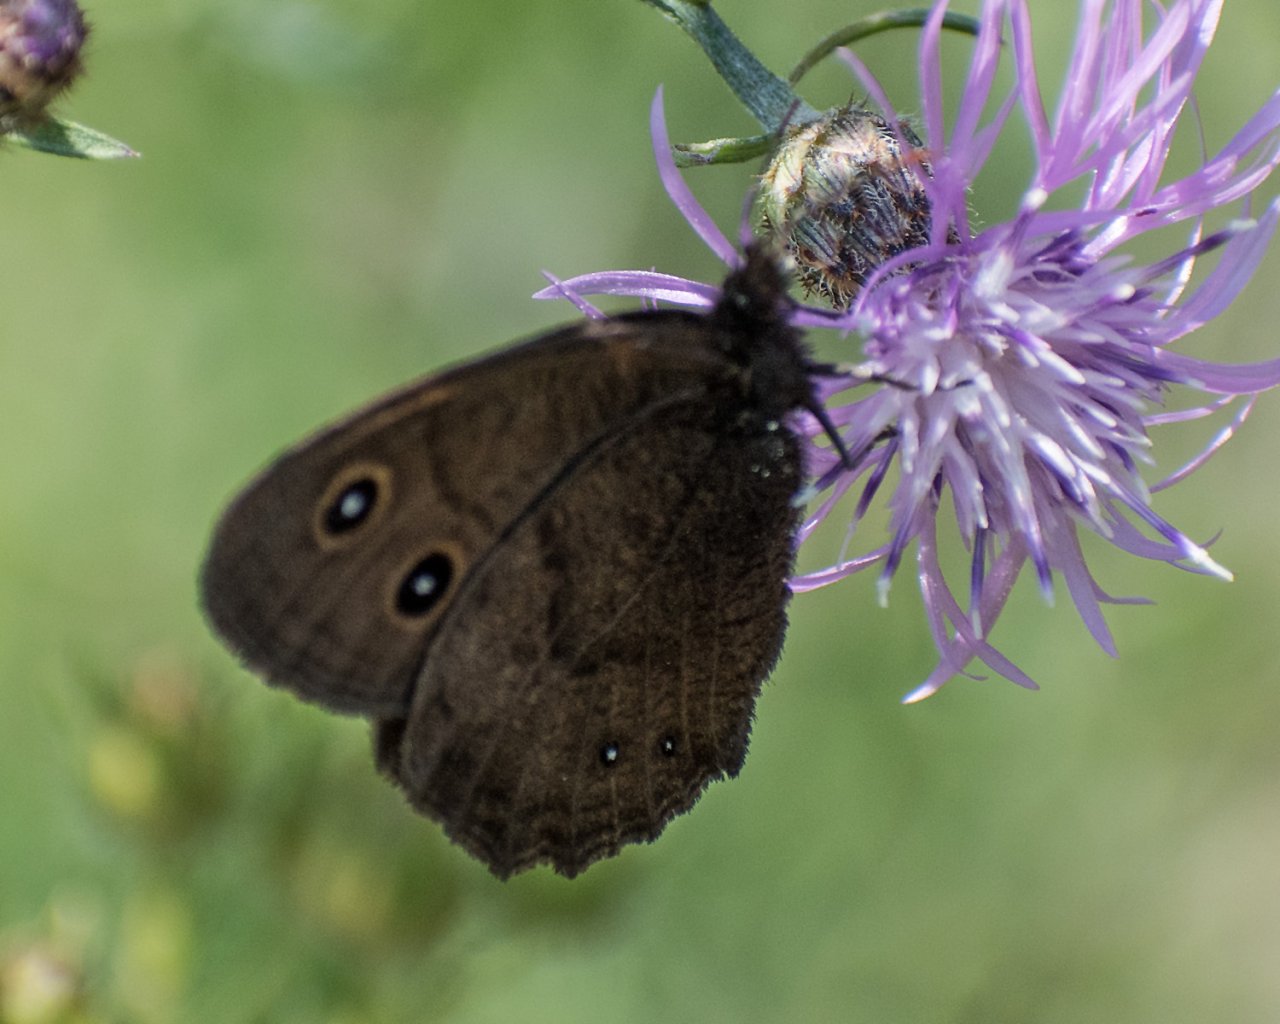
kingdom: Animalia
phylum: Arthropoda
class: Insecta
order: Lepidoptera
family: Nymphalidae
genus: Cercyonis
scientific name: Cercyonis pegala
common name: Common Wood-Nymph
